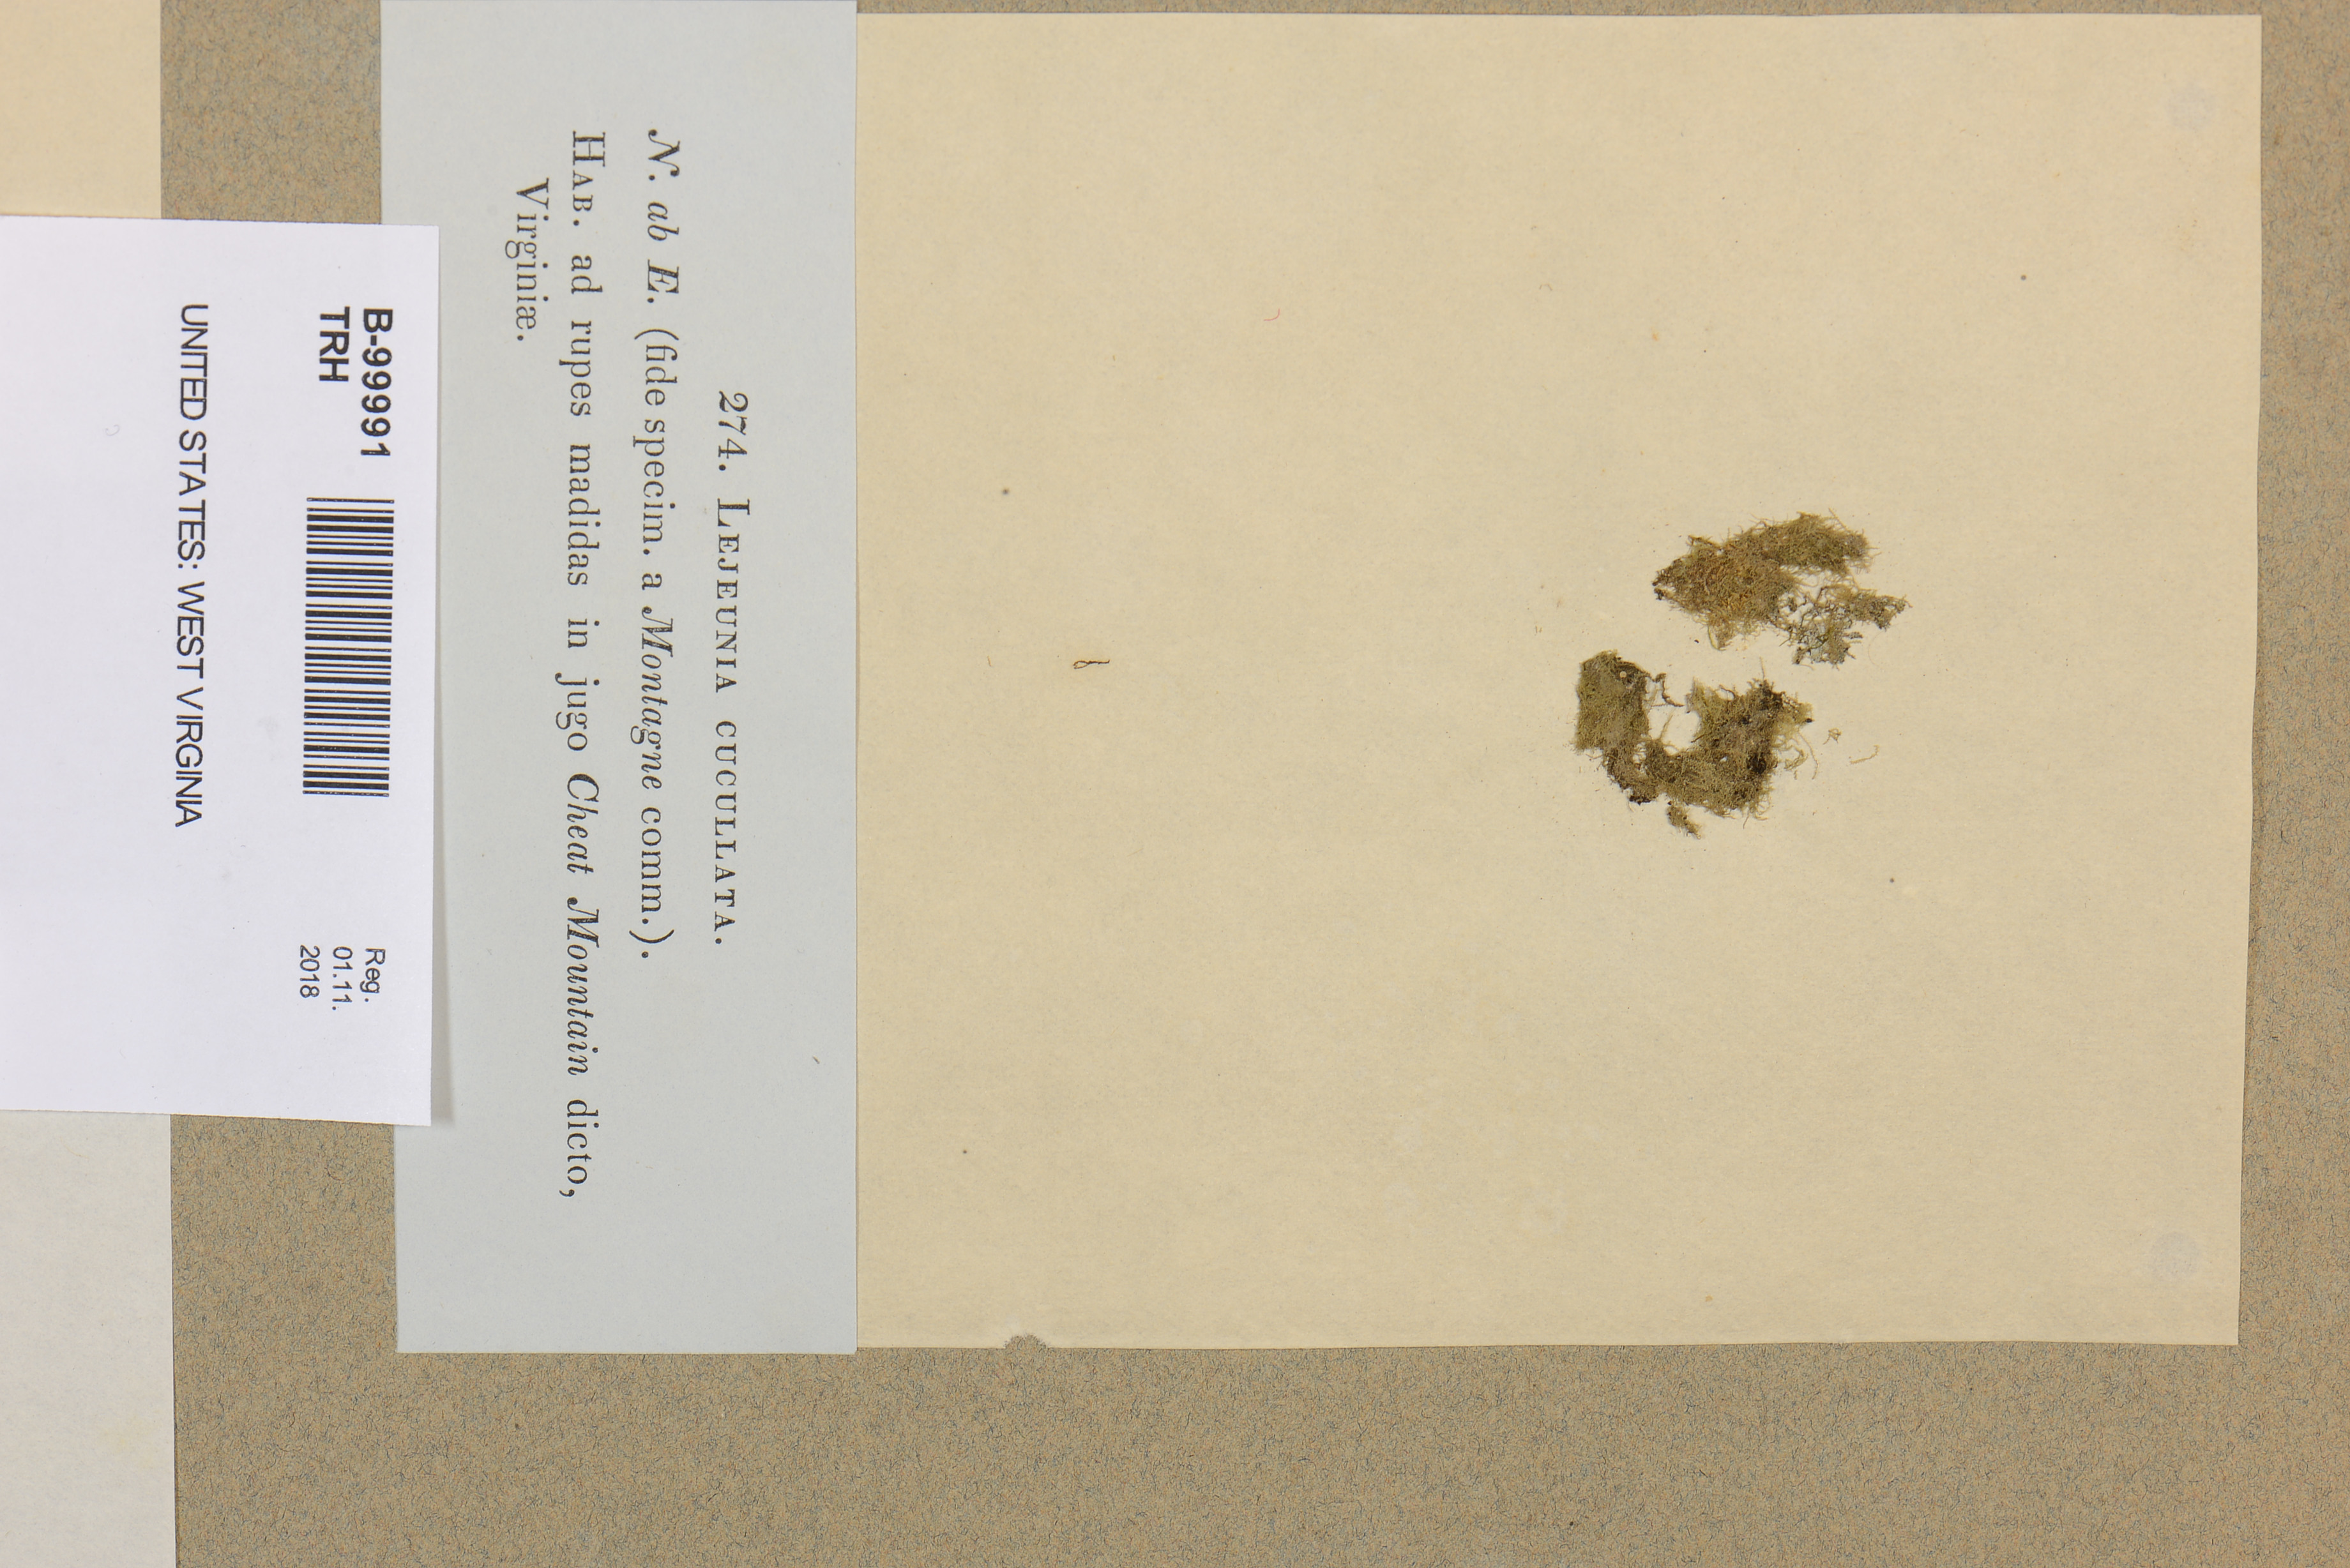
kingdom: Plantae
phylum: Marchantiophyta
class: Jungermanniopsida
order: Porellales
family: Lejeuneaceae
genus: Metalejeunea
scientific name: Metalejeunea cucullata
